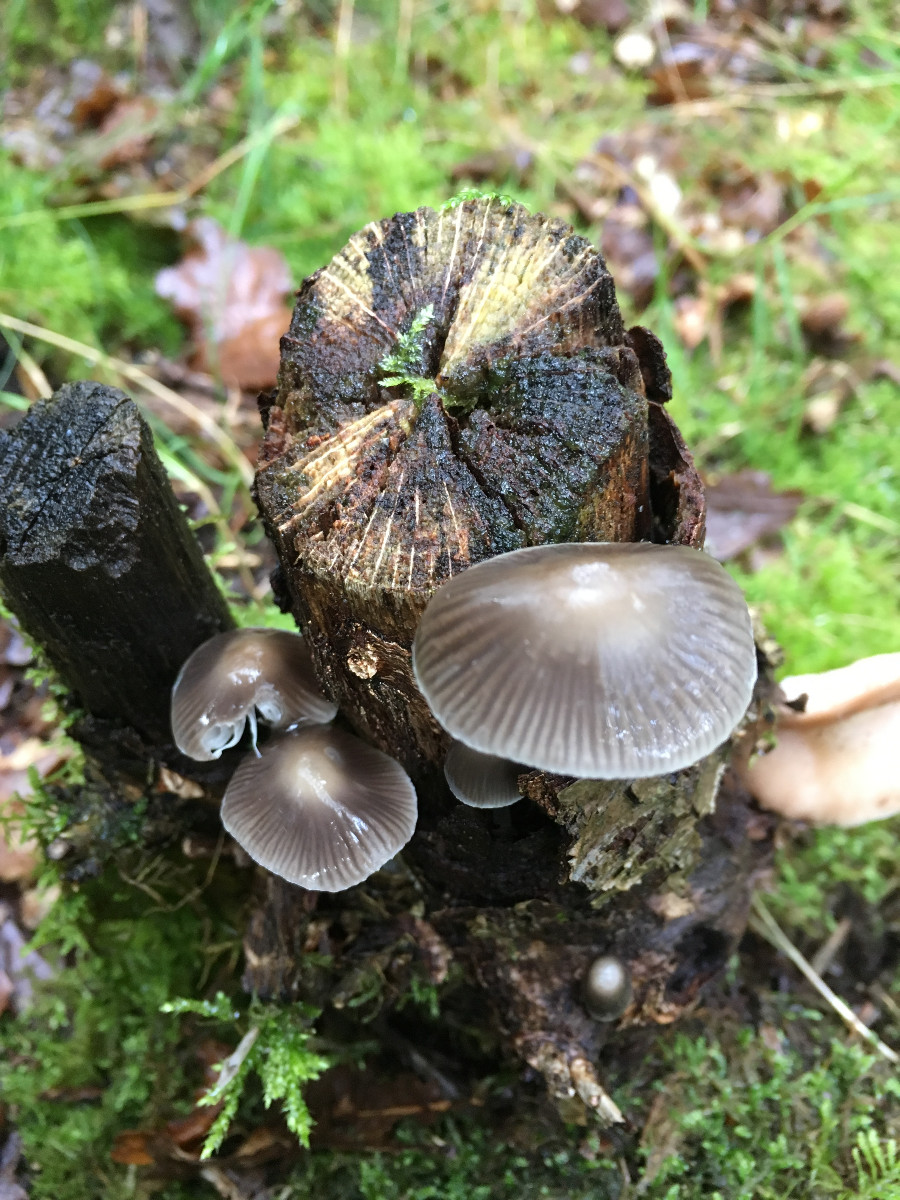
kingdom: Fungi
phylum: Basidiomycota
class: Agaricomycetes
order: Agaricales
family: Mycenaceae
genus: Mycena
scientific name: Mycena
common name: huesvamp
